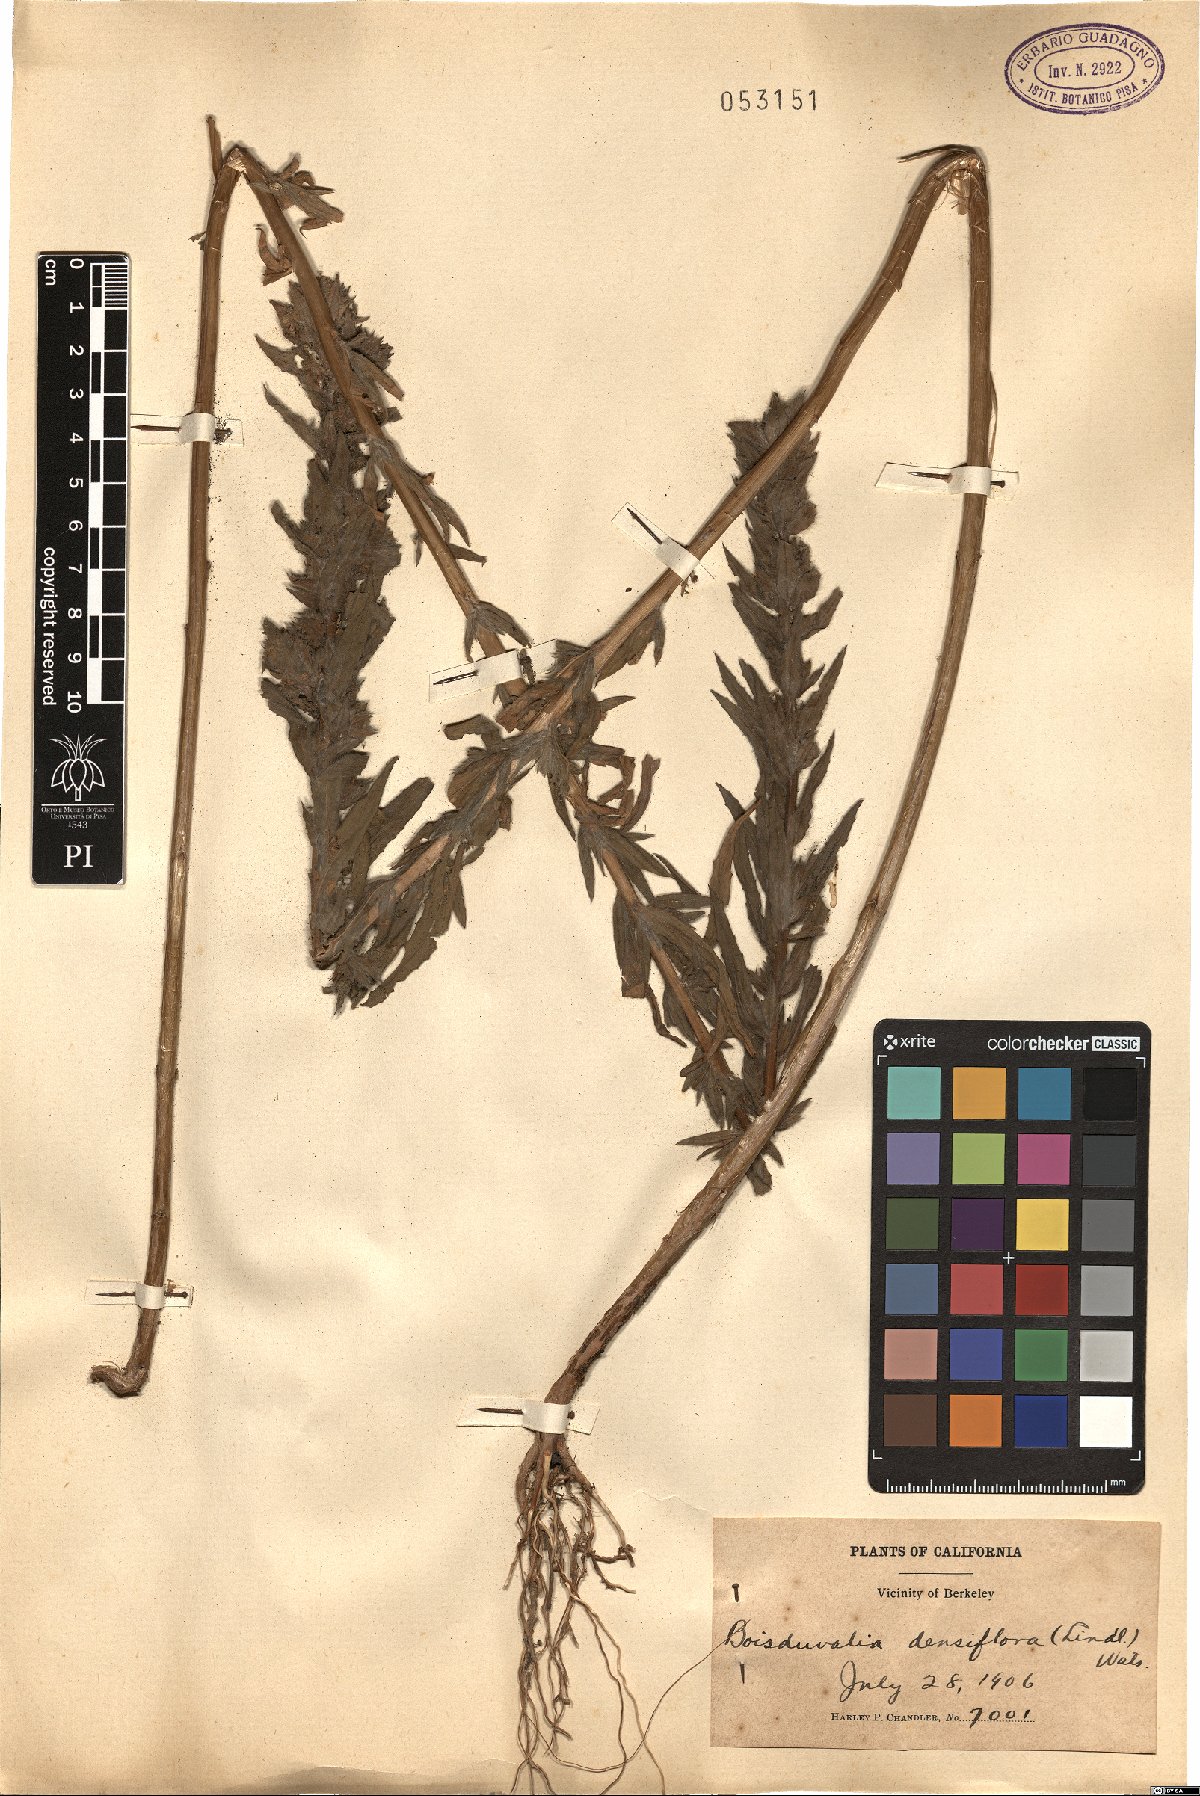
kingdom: Plantae
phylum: Tracheophyta
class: Magnoliopsida
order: Myrtales
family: Onagraceae
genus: Epilobium
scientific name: Epilobium densiflorum
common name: Dense spike-primrose
